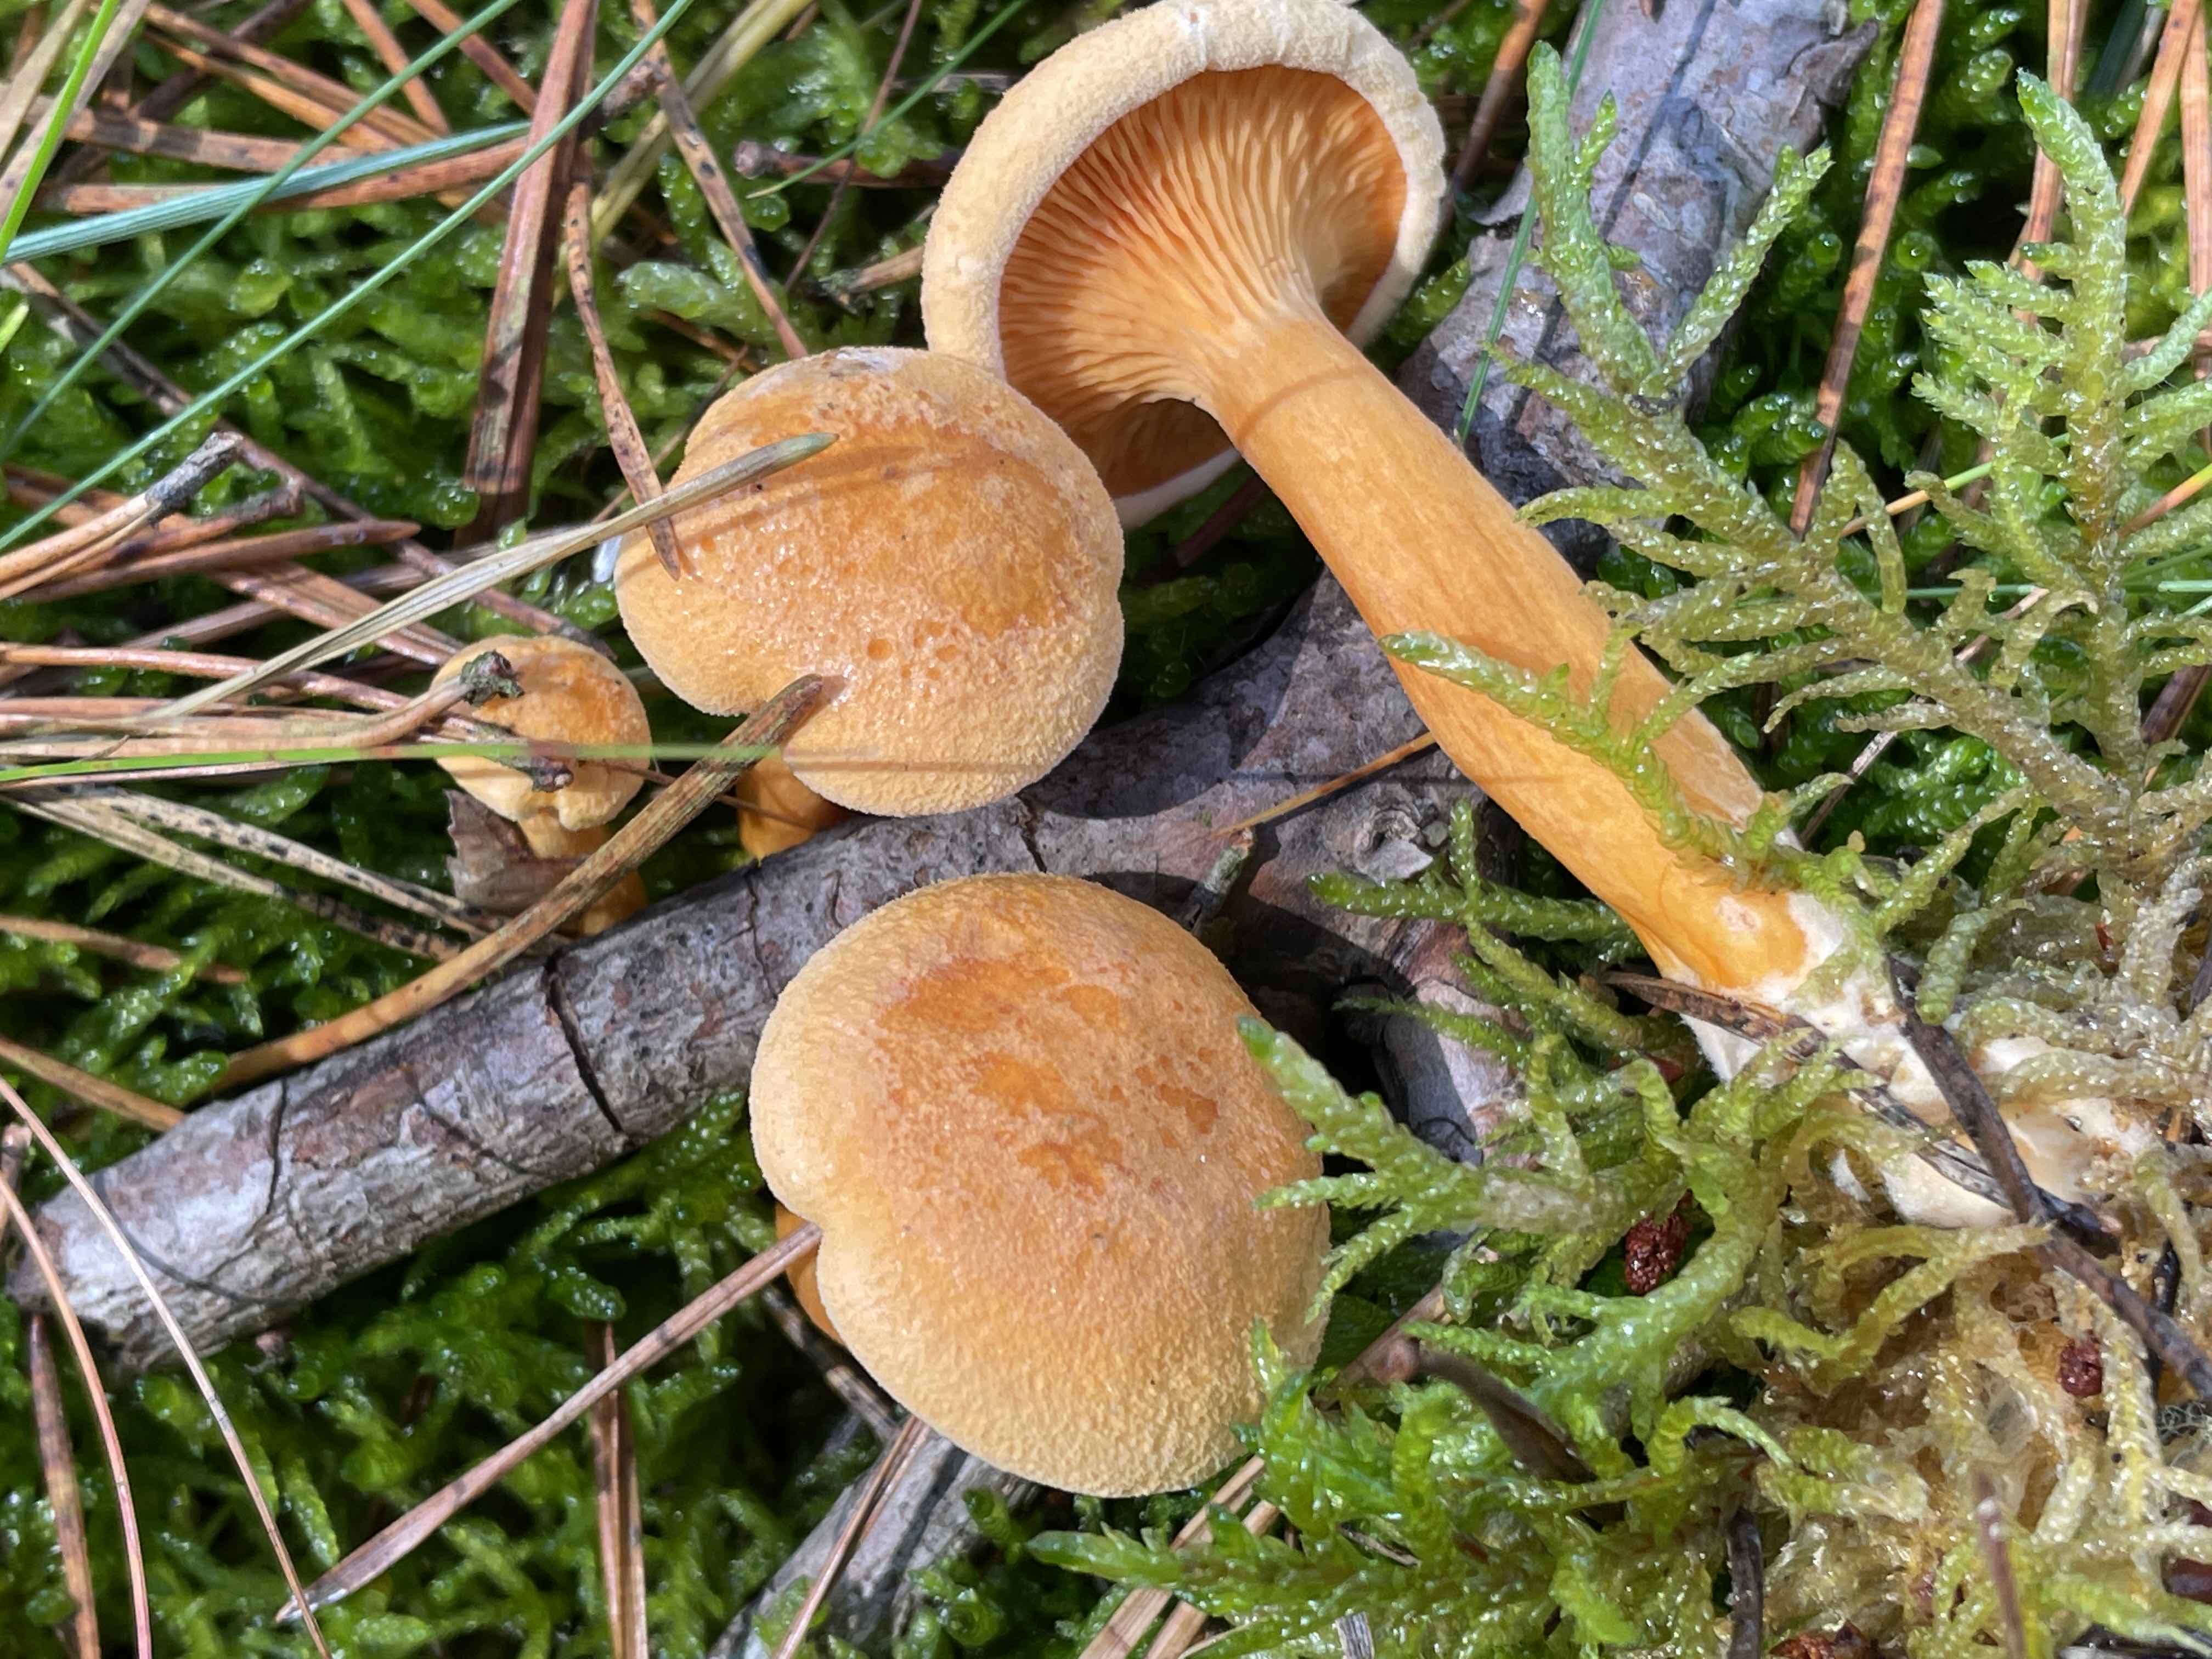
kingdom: Fungi
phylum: Basidiomycota
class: Agaricomycetes
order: Boletales
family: Hygrophoropsidaceae
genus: Hygrophoropsis
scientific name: Hygrophoropsis aurantiaca
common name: almindelig orangekantarel
